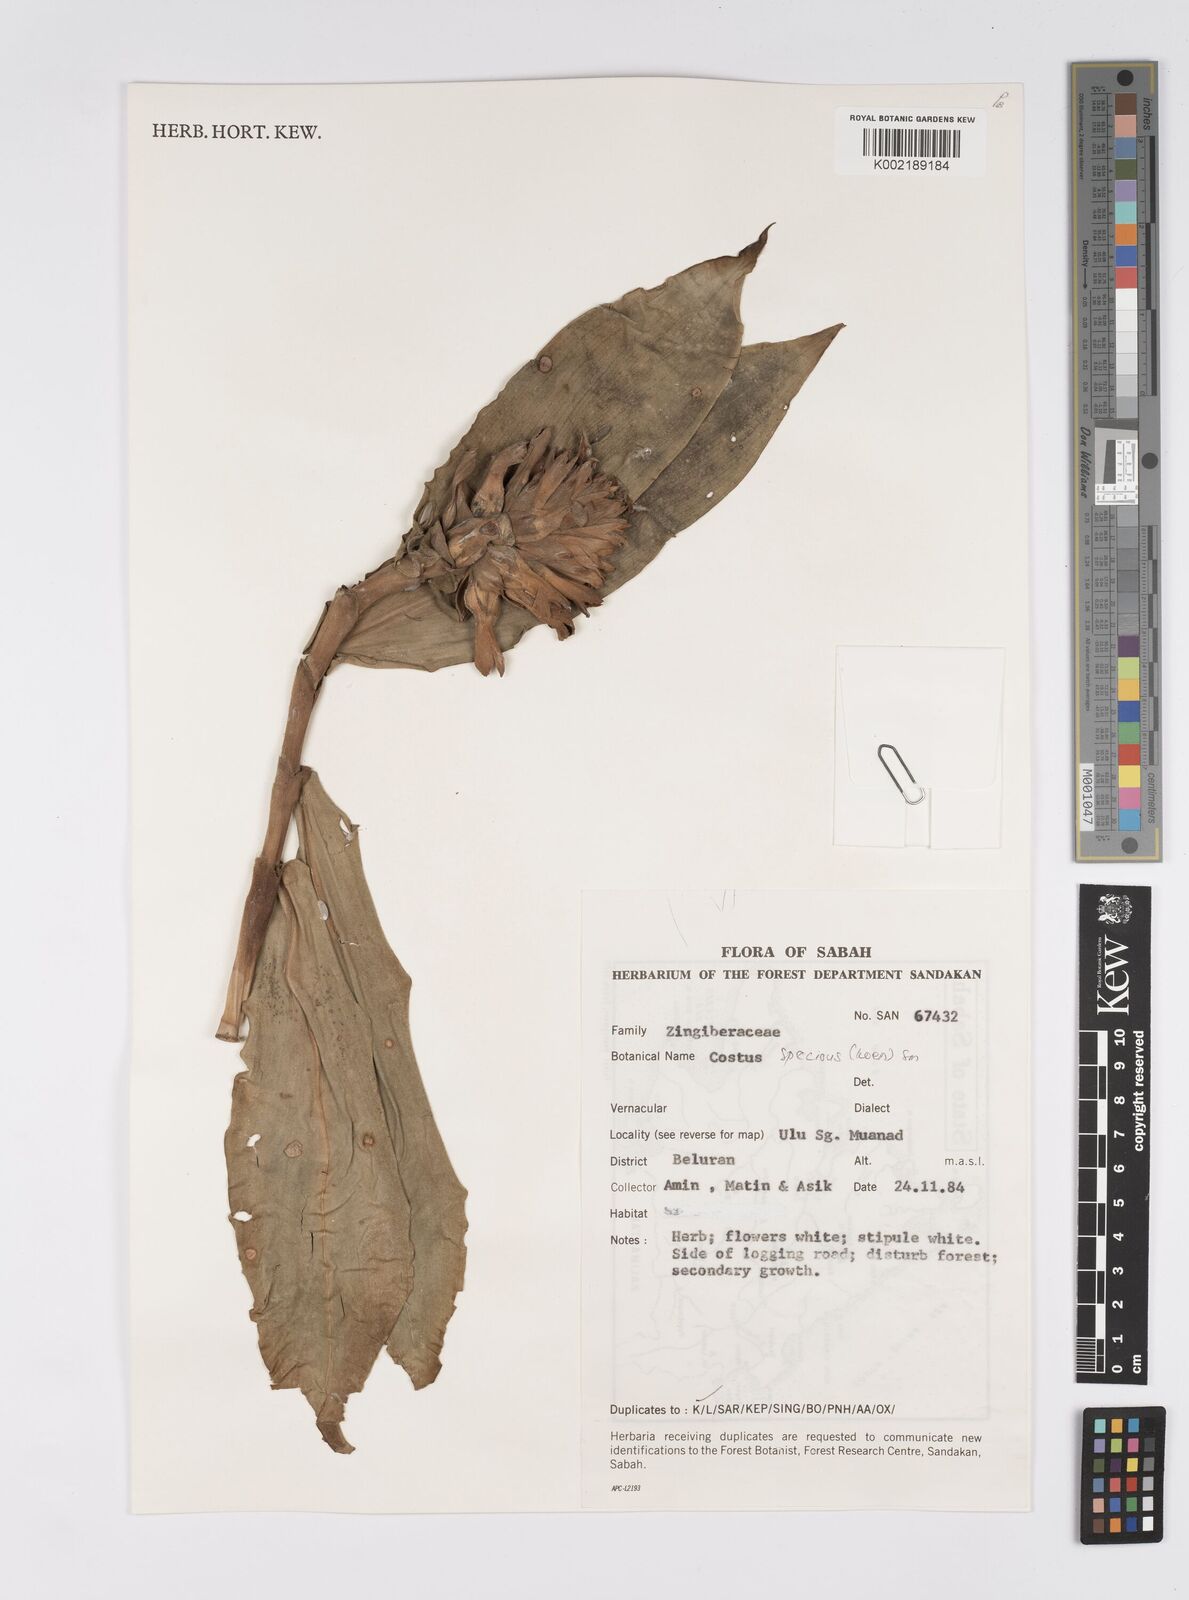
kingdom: Plantae
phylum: Tracheophyta
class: Liliopsida
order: Zingiberales
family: Costaceae
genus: Hellenia
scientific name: Hellenia speciosa
